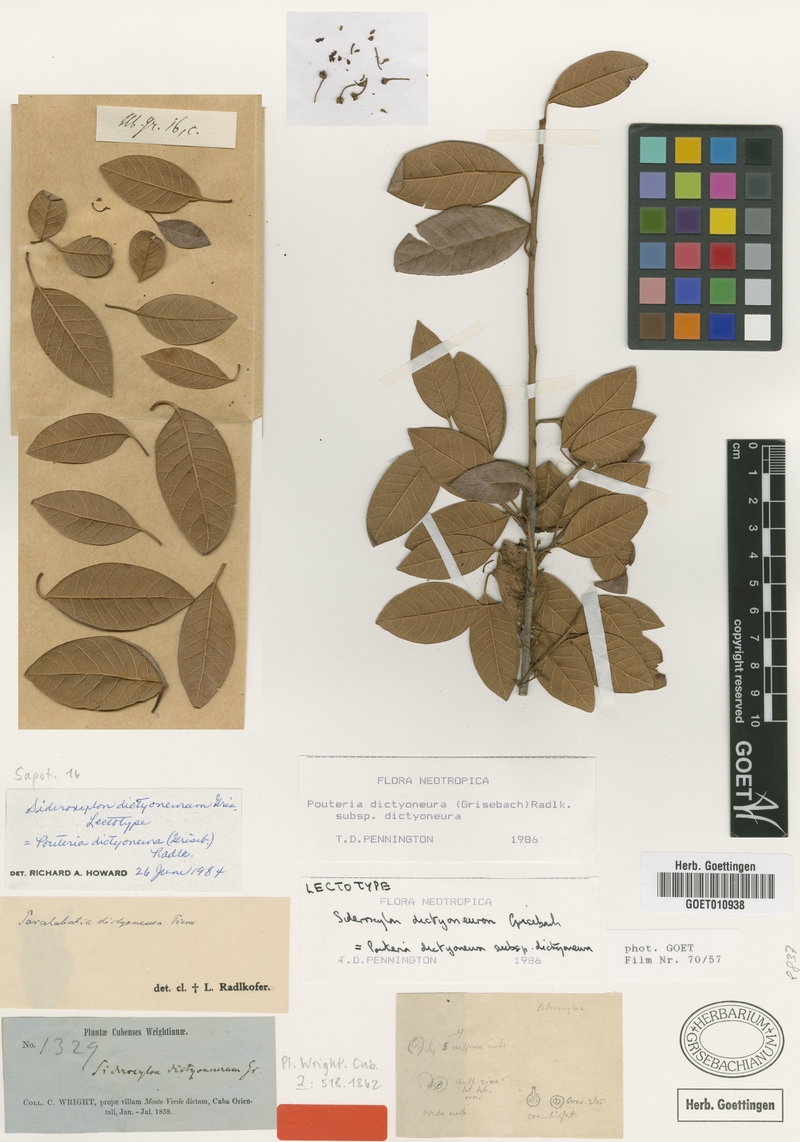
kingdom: Plantae
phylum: Tracheophyta
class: Magnoliopsida
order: Ericales
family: Sapotaceae
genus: Pouteria
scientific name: Pouteria dictyoneura
